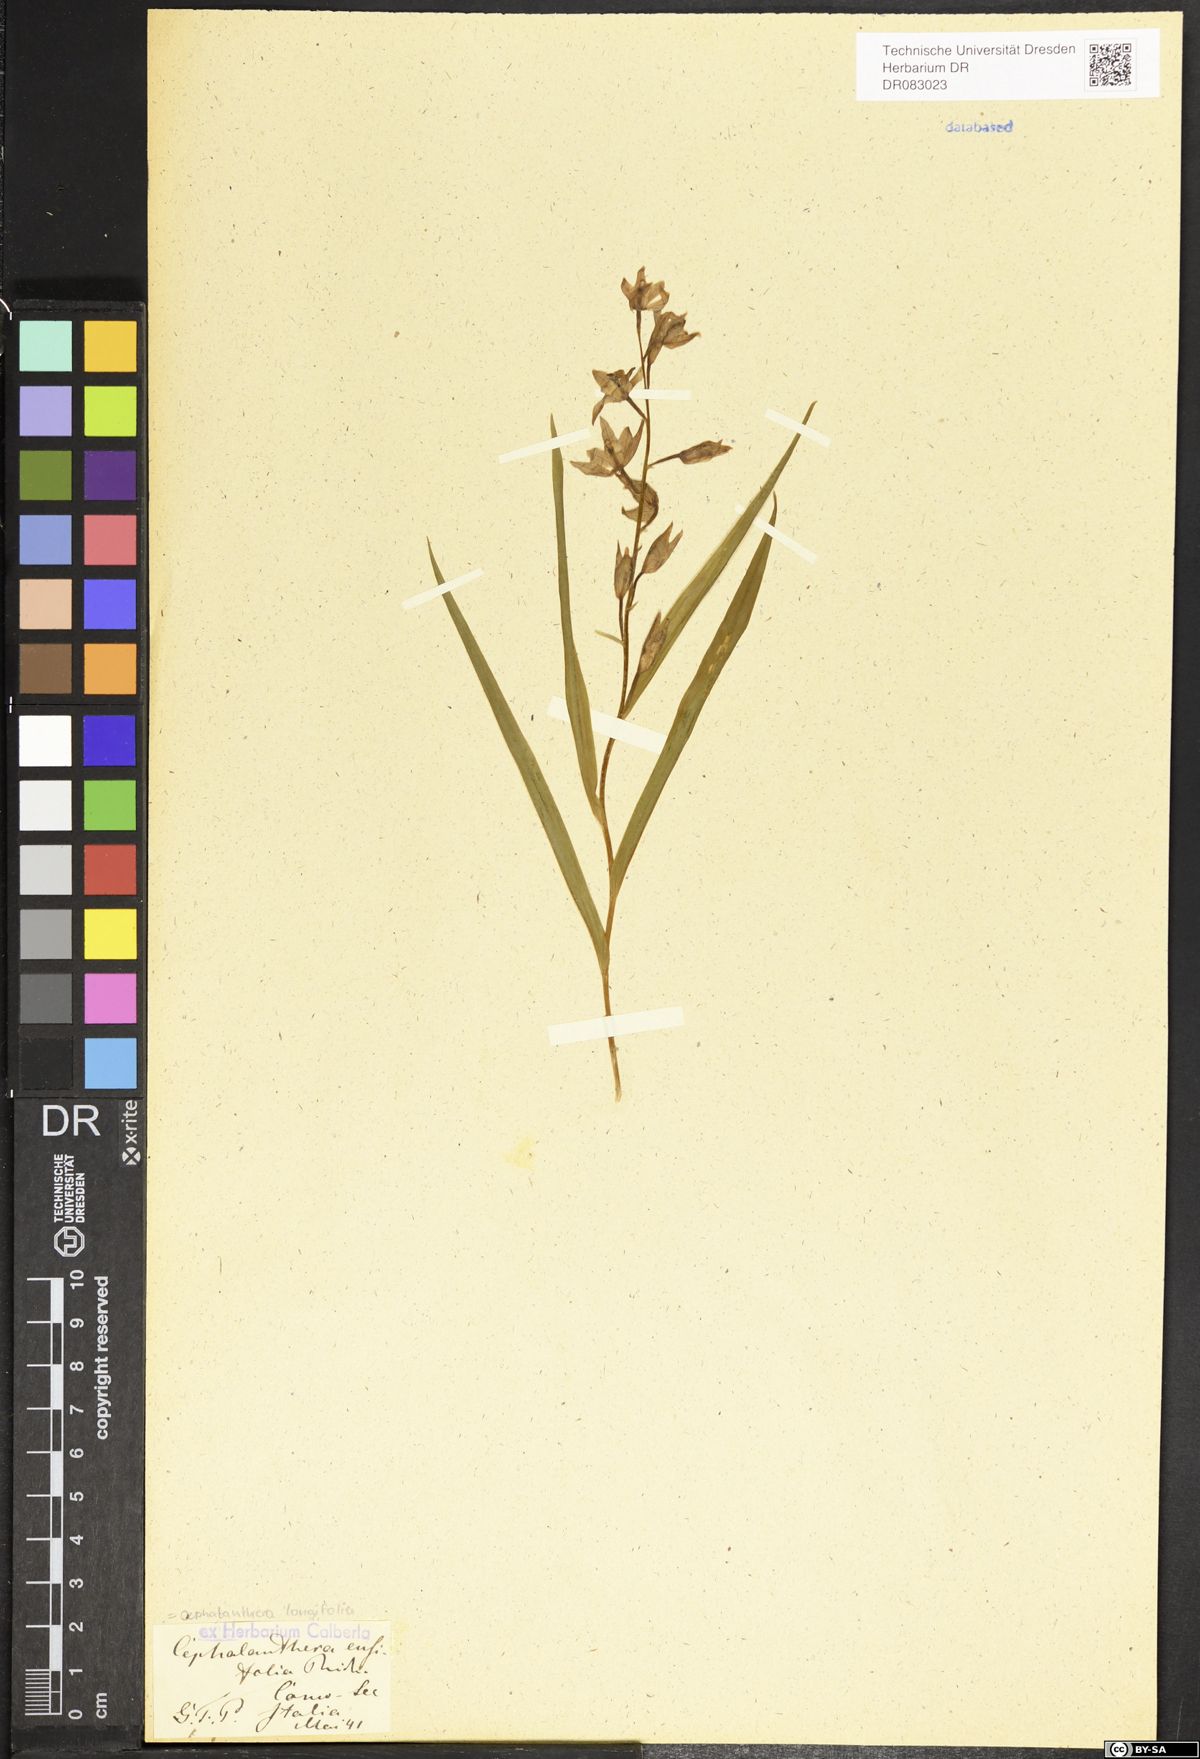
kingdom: Plantae
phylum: Tracheophyta
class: Liliopsida
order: Asparagales
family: Orchidaceae
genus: Cephalanthera
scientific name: Cephalanthera longifolia
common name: Narrow-leaved helleborine
